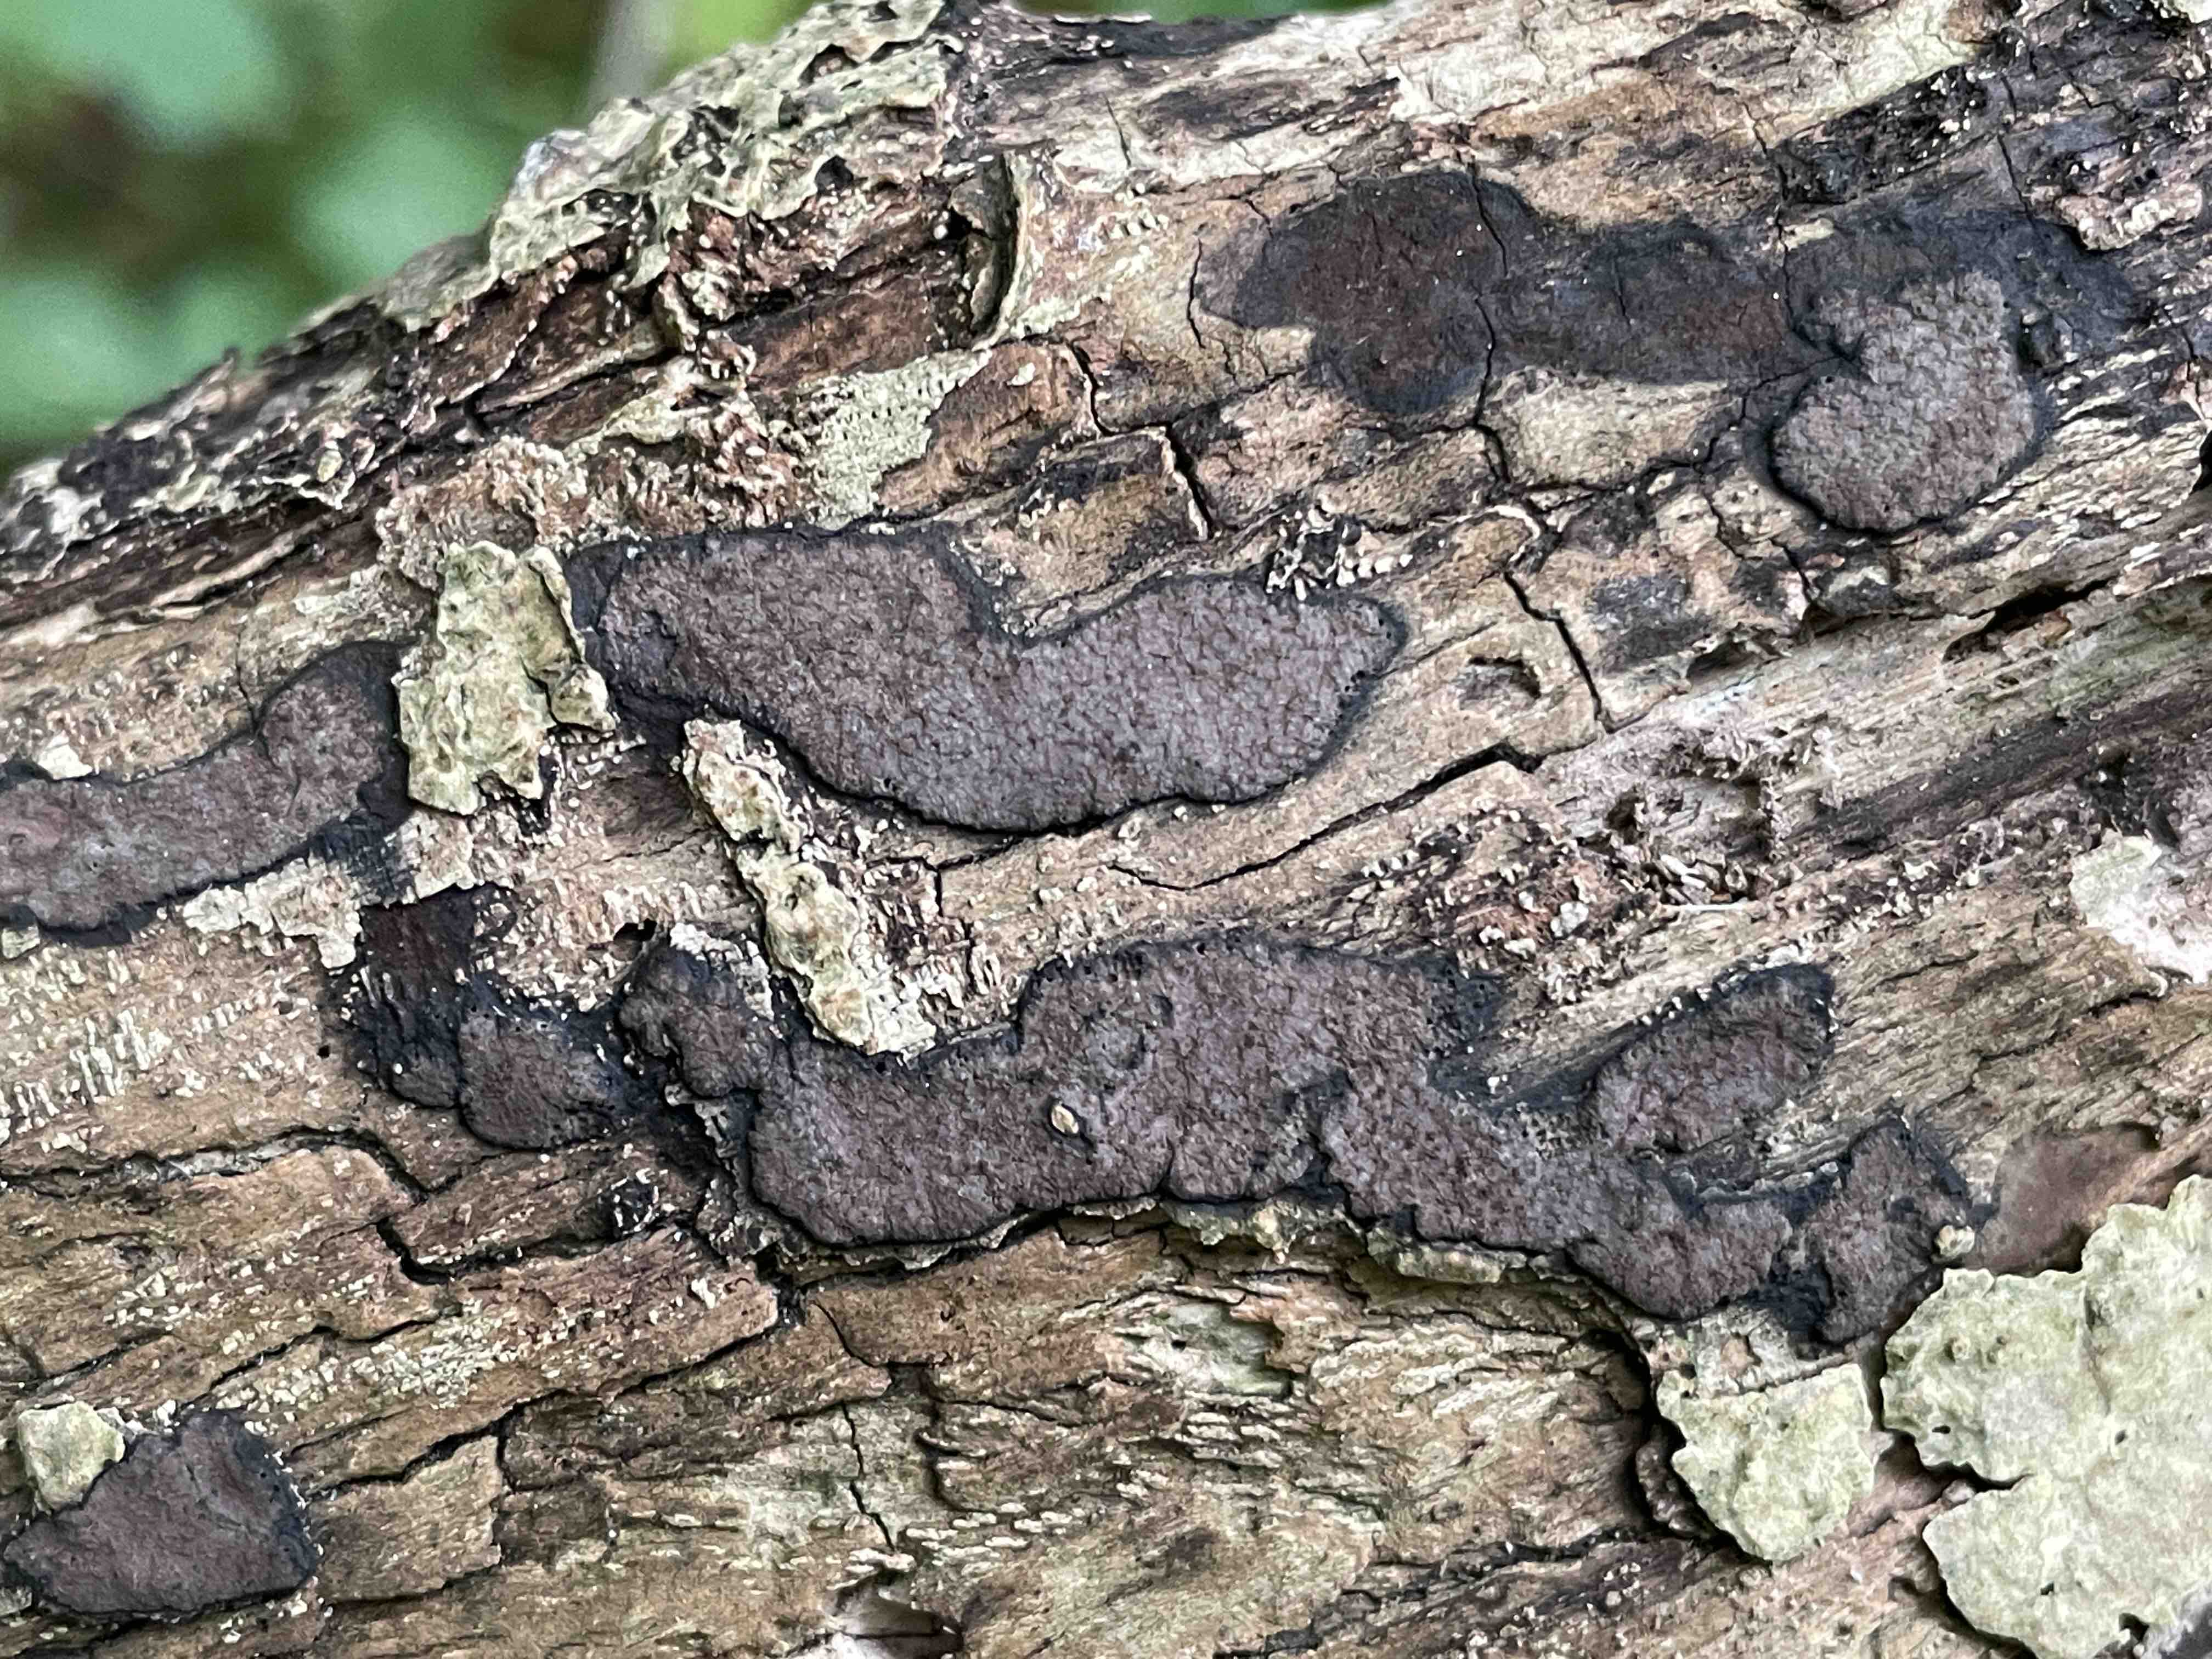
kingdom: Fungi
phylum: Ascomycota
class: Sordariomycetes
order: Xylariales
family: Hypoxylaceae
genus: Hypoxylon
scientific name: Hypoxylon petriniae
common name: nedsænket kulbær
